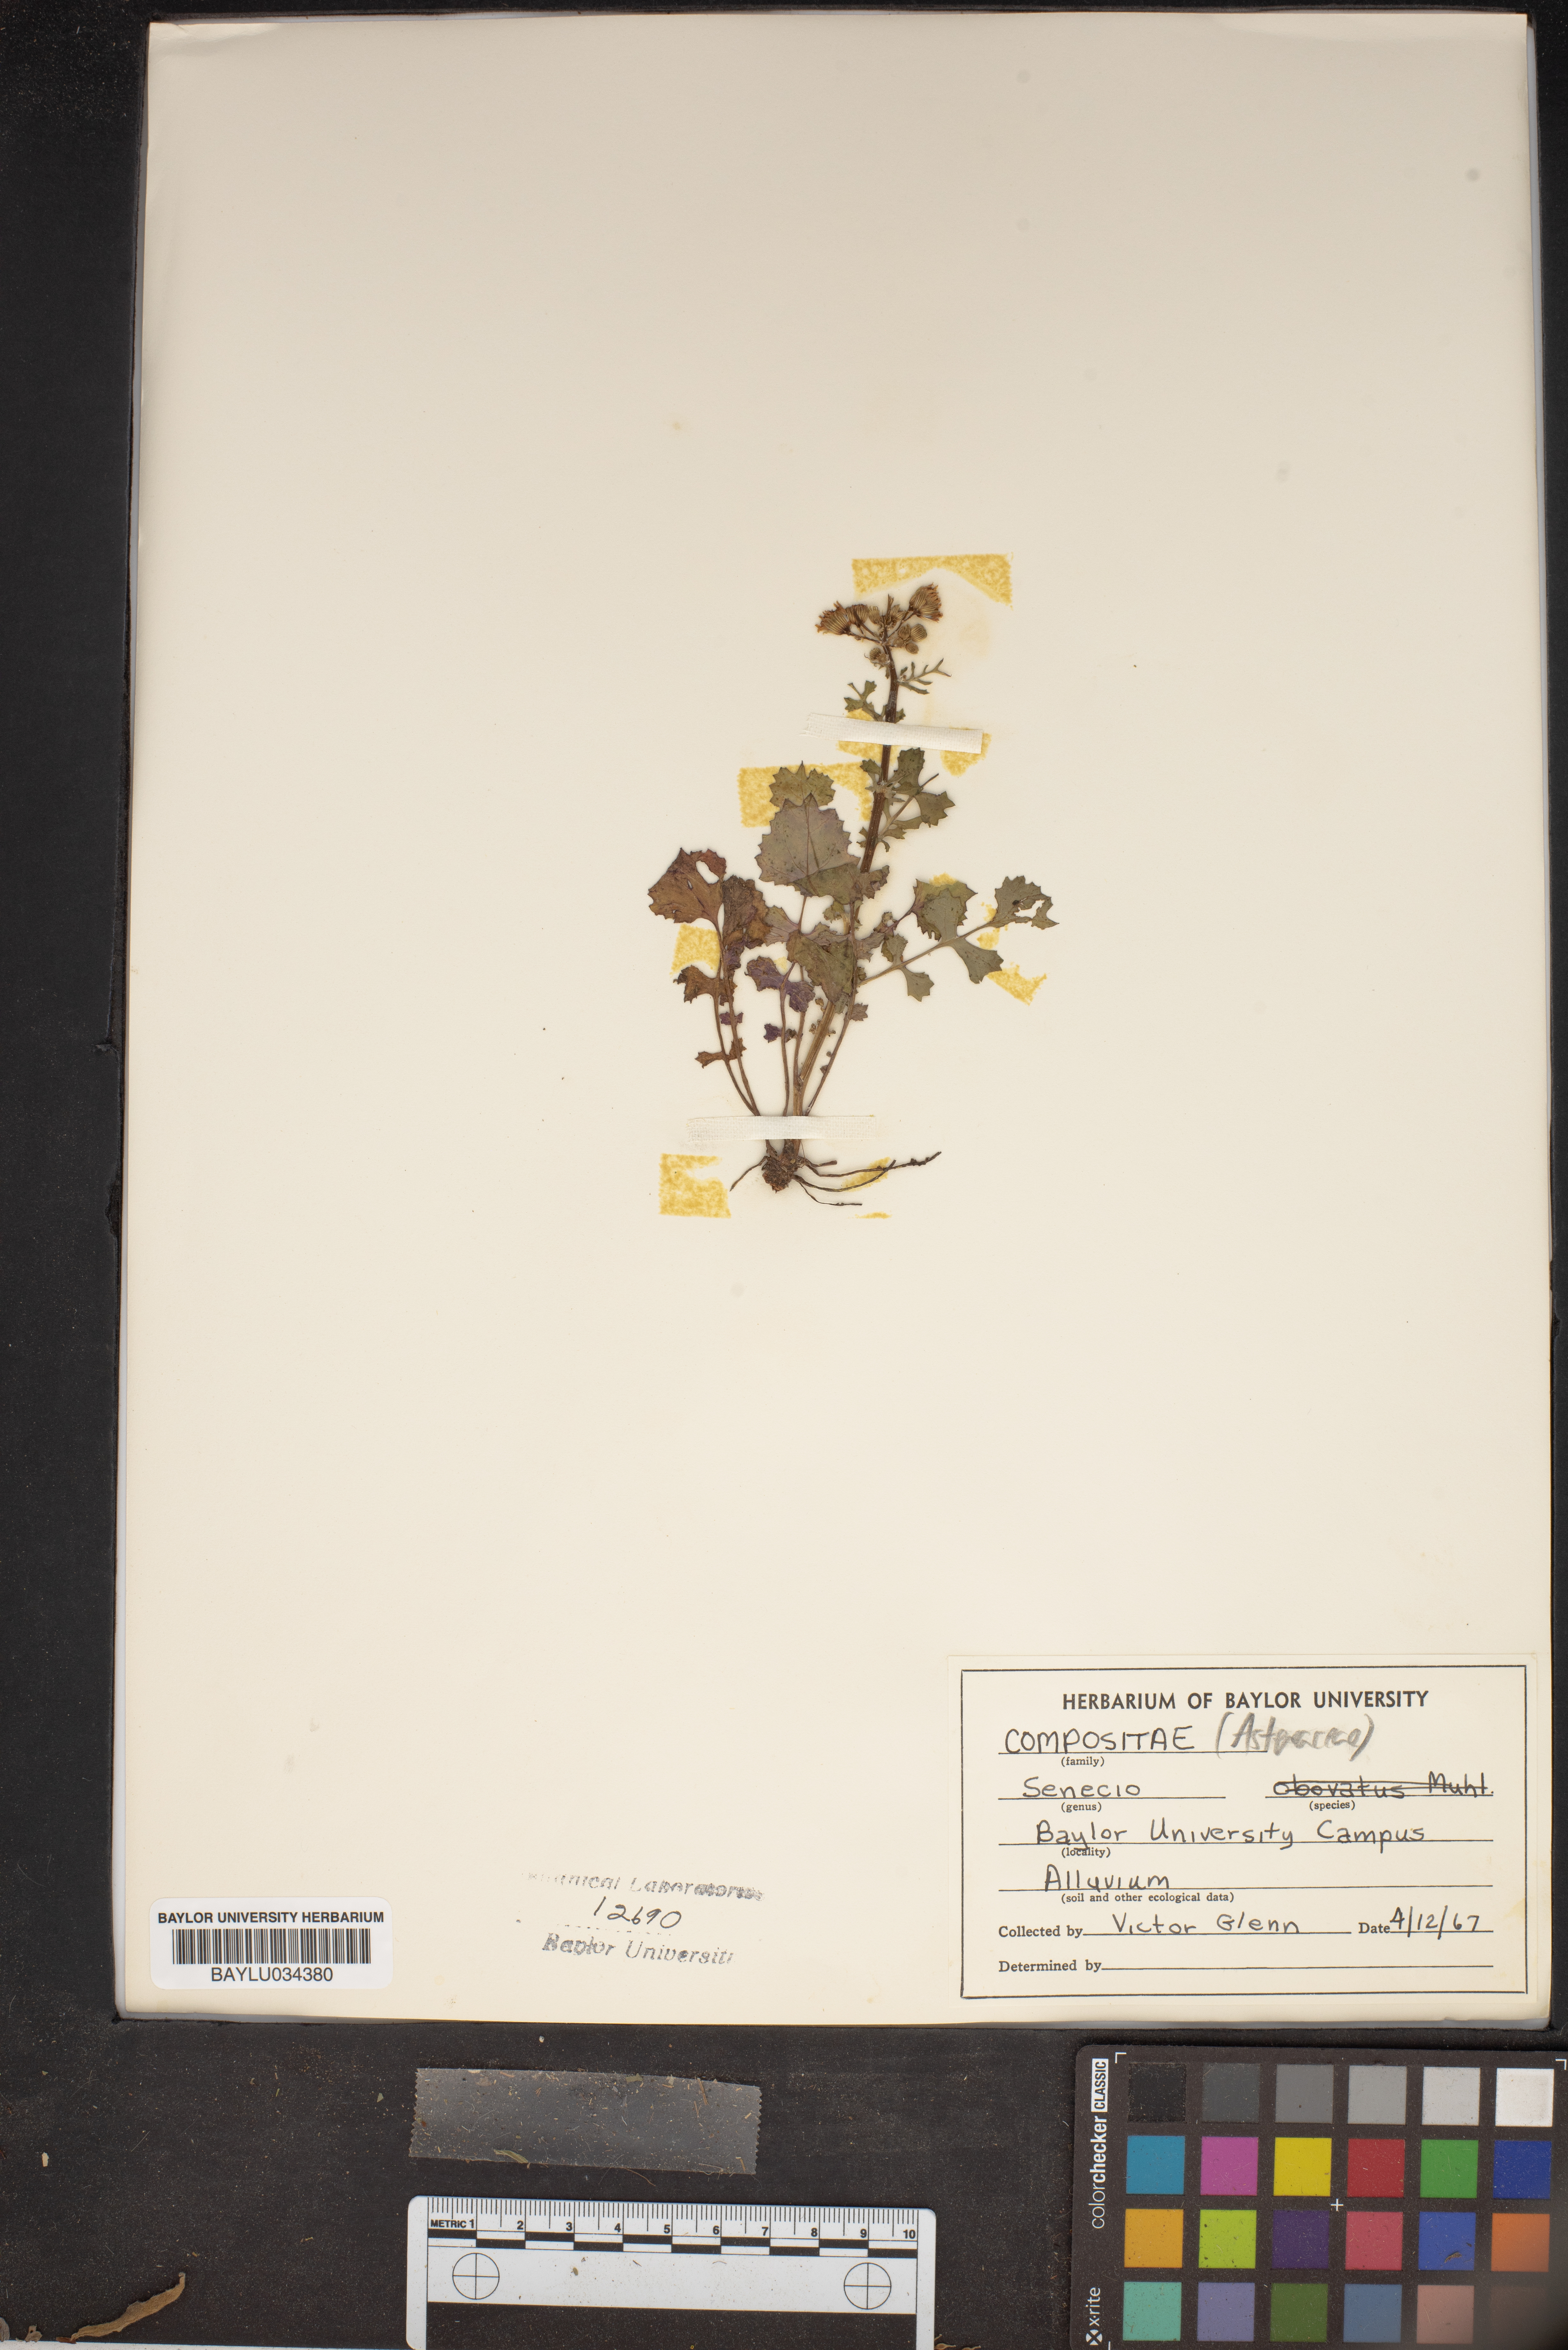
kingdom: Plantae
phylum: Tracheophyta
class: Magnoliopsida
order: Asterales
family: Asteraceae
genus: Senecio
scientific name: Senecio provincialis
